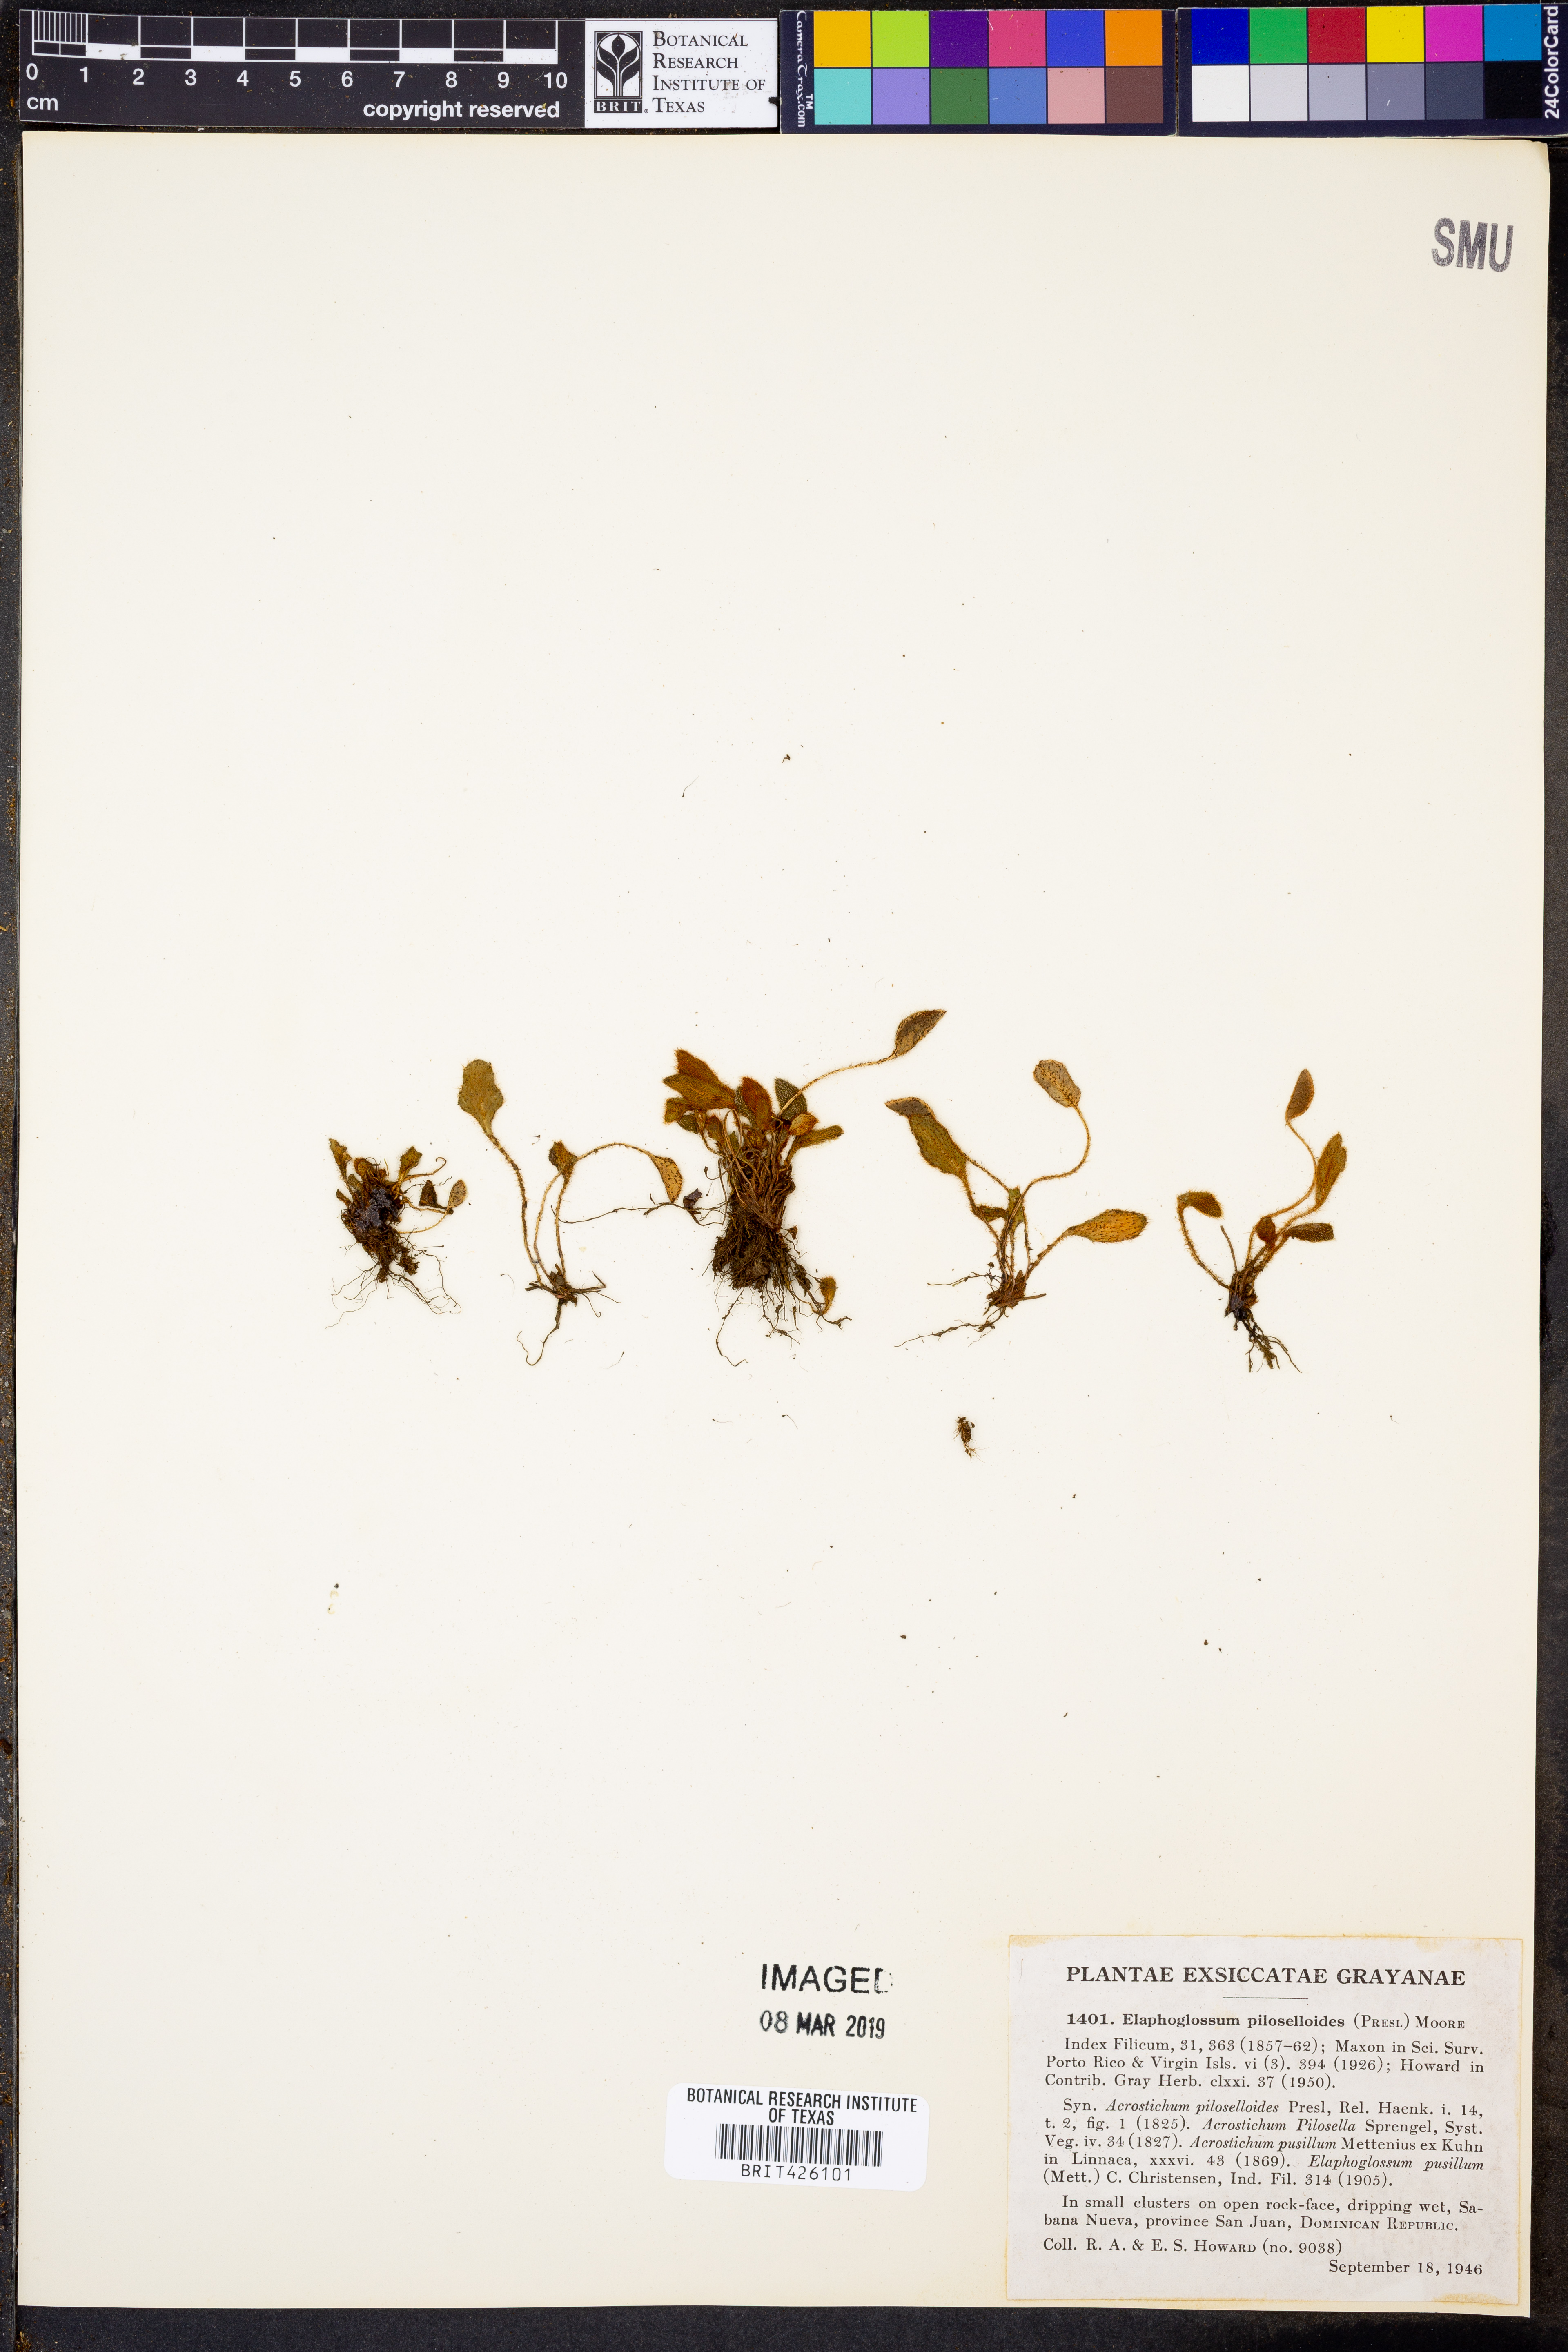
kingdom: Plantae
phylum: Tracheophyta
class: Polypodiopsida
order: Polypodiales
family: Dryopteridaceae
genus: Elaphoglossum
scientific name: Elaphoglossum piloselloides
